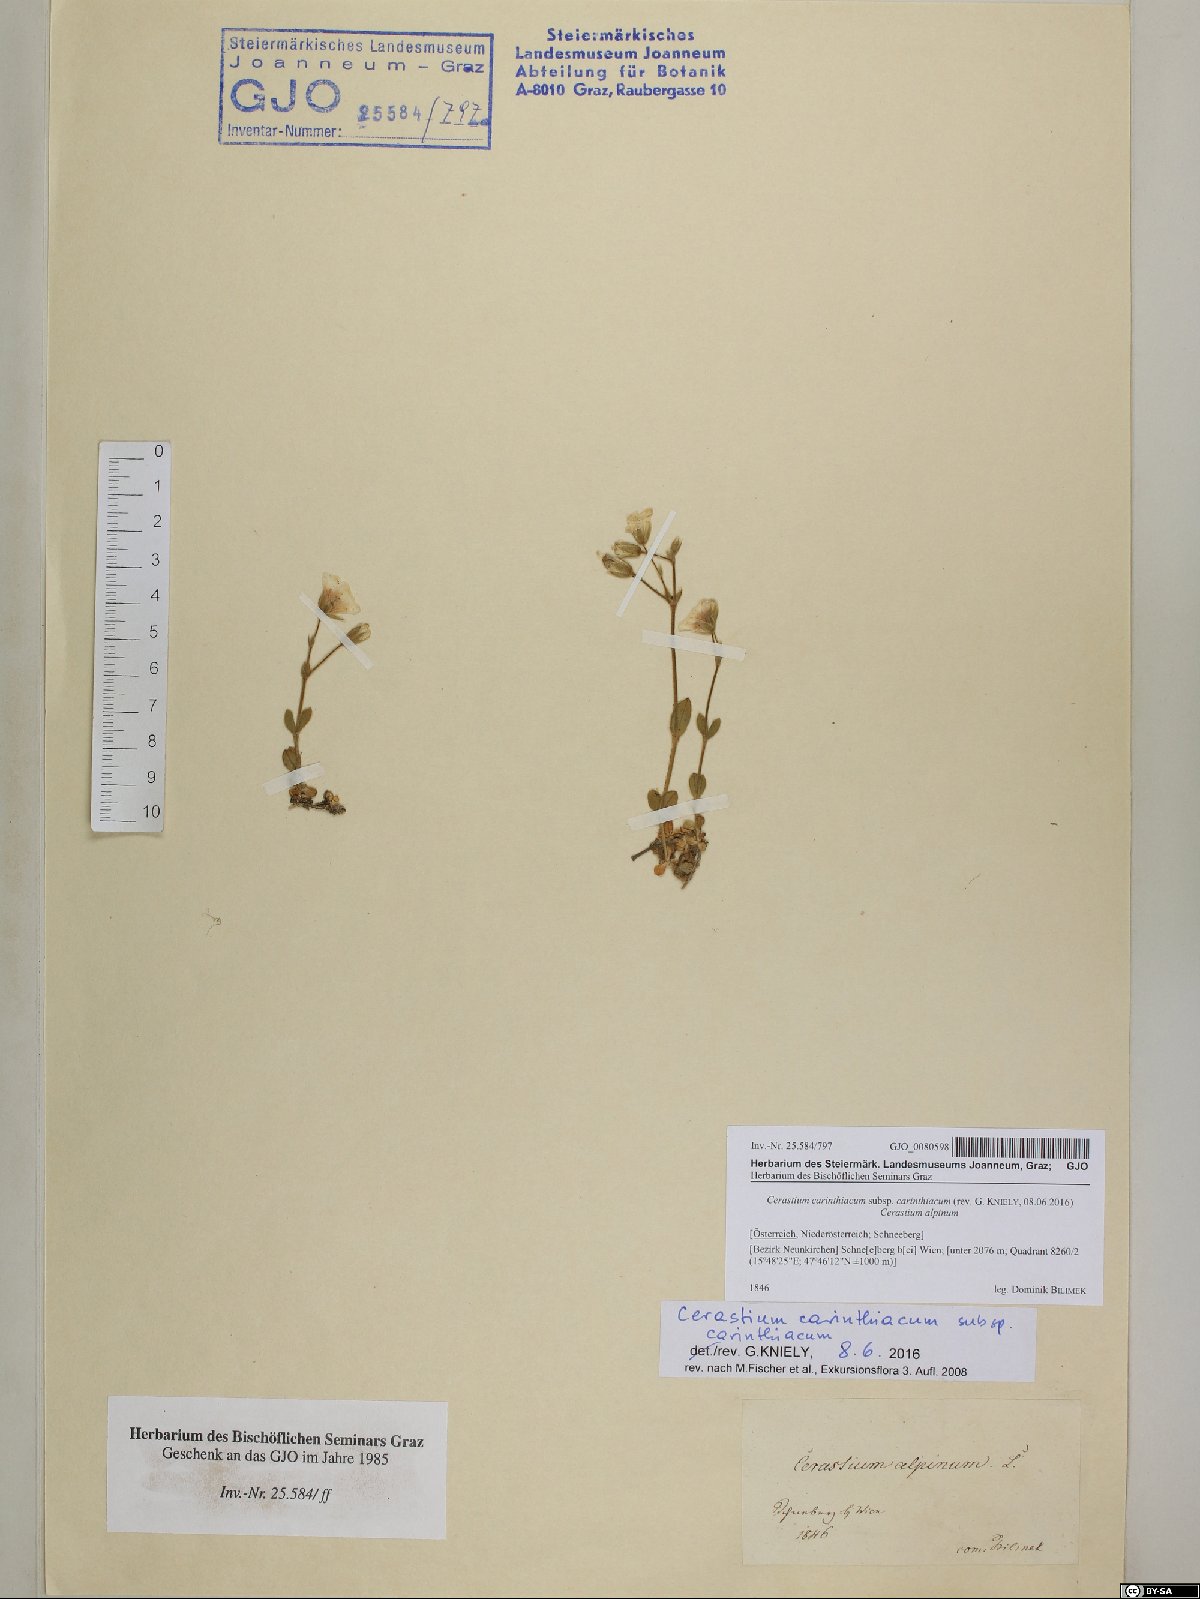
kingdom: Plantae
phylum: Tracheophyta
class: Magnoliopsida
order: Caryophyllales
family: Caryophyllaceae
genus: Cerastium
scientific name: Cerastium carinthiacum
